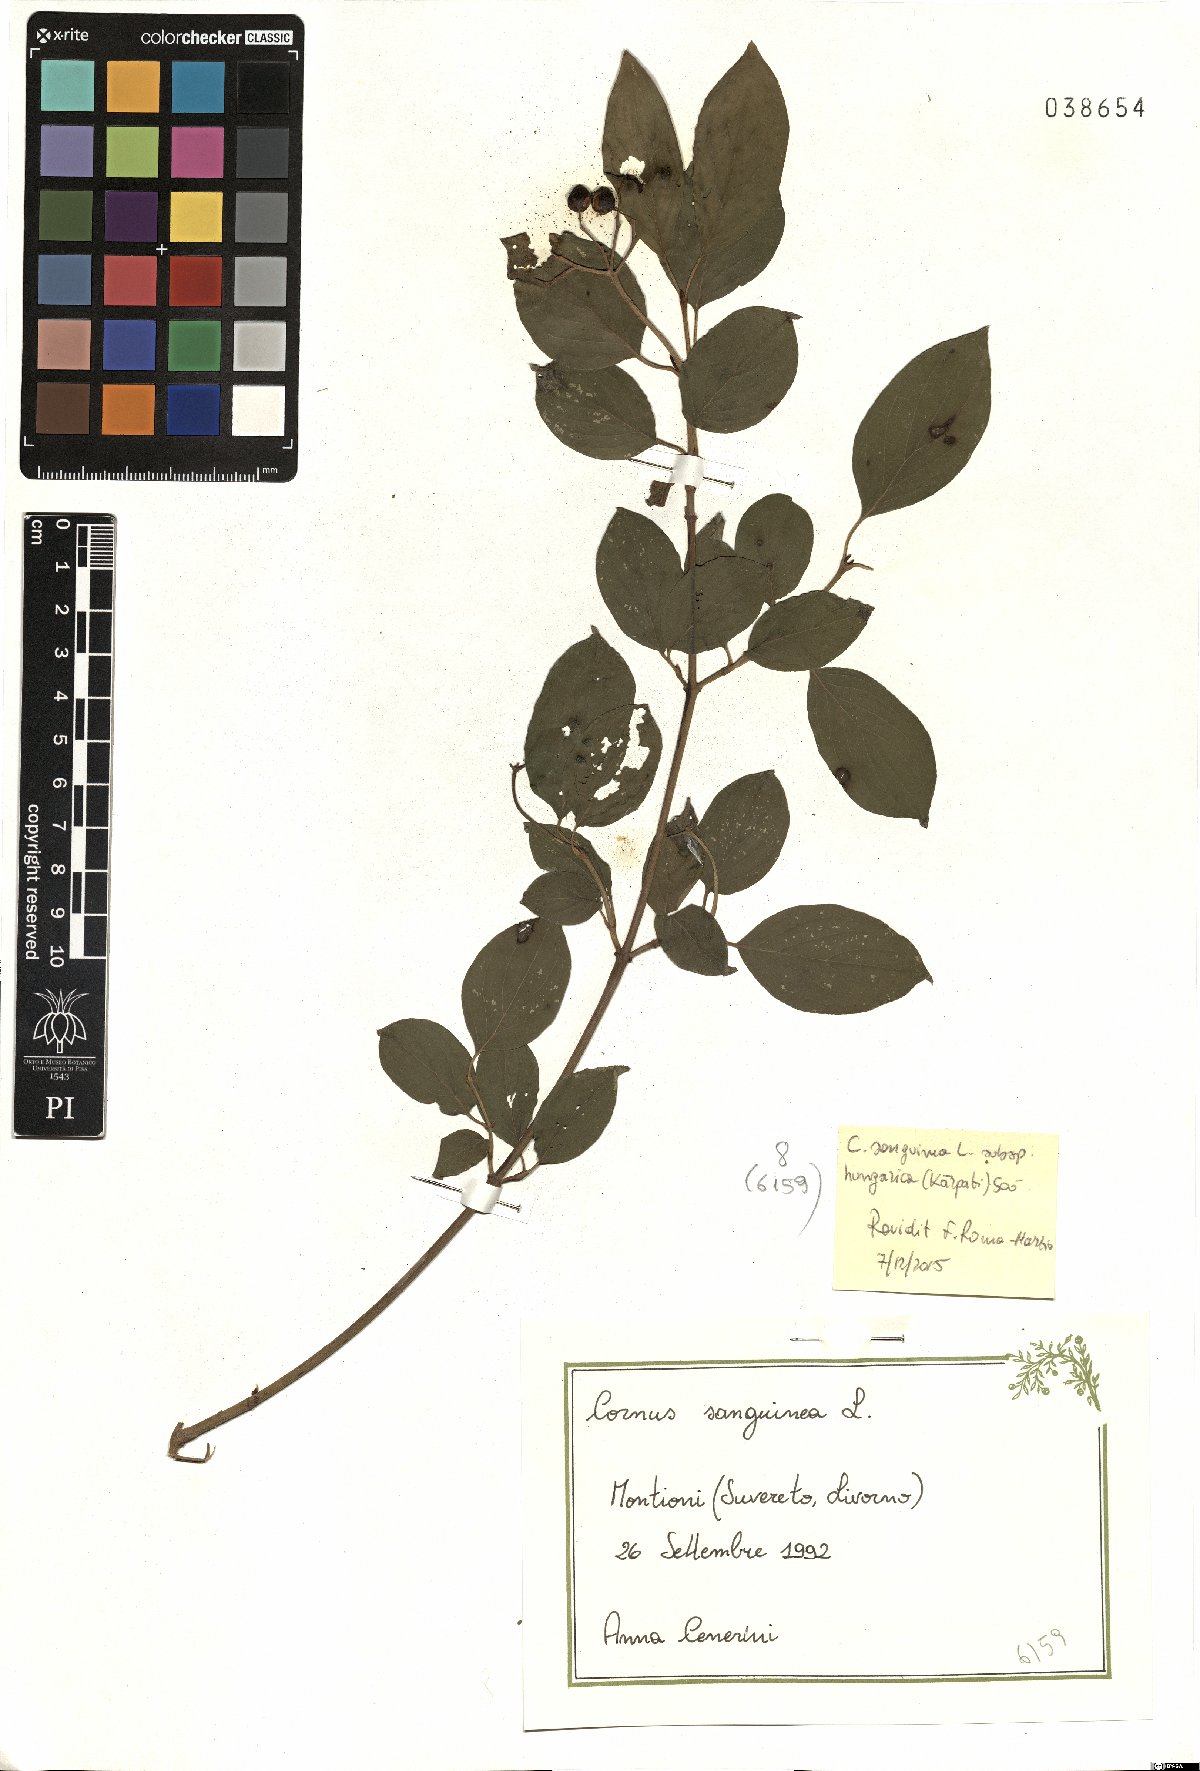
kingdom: Plantae
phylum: Tracheophyta
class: Magnoliopsida
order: Cornales
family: Cornaceae
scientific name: Cornaceae
